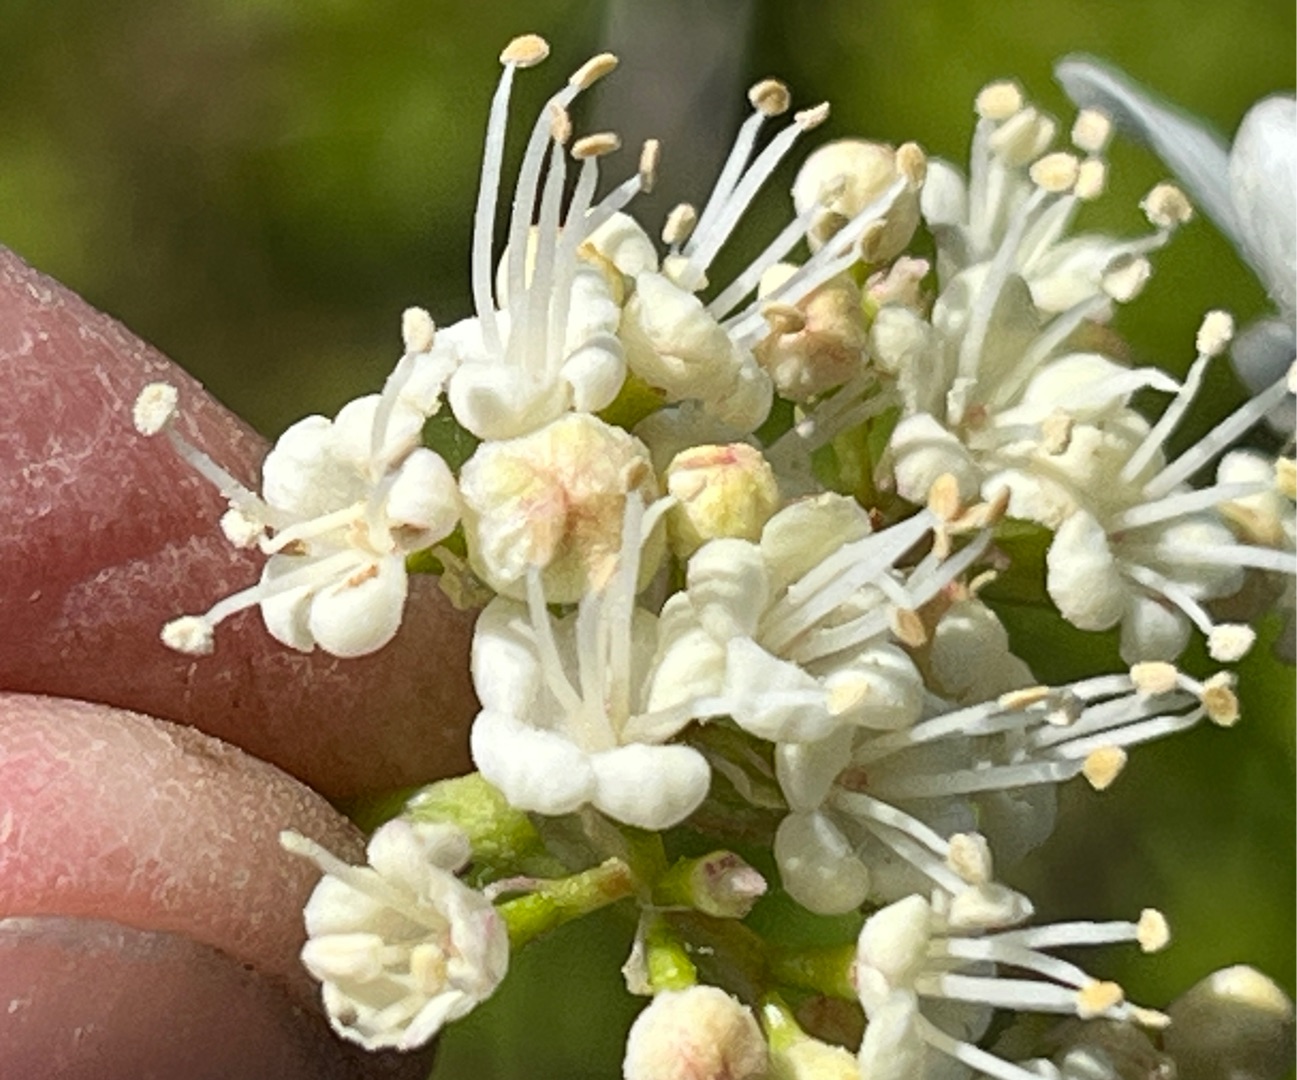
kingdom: Animalia
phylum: Arthropoda
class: Insecta
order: Diptera
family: Cecidomyiidae
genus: Contarinia
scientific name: Contarinia viburnorum
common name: Kvalkvedgalmyg
